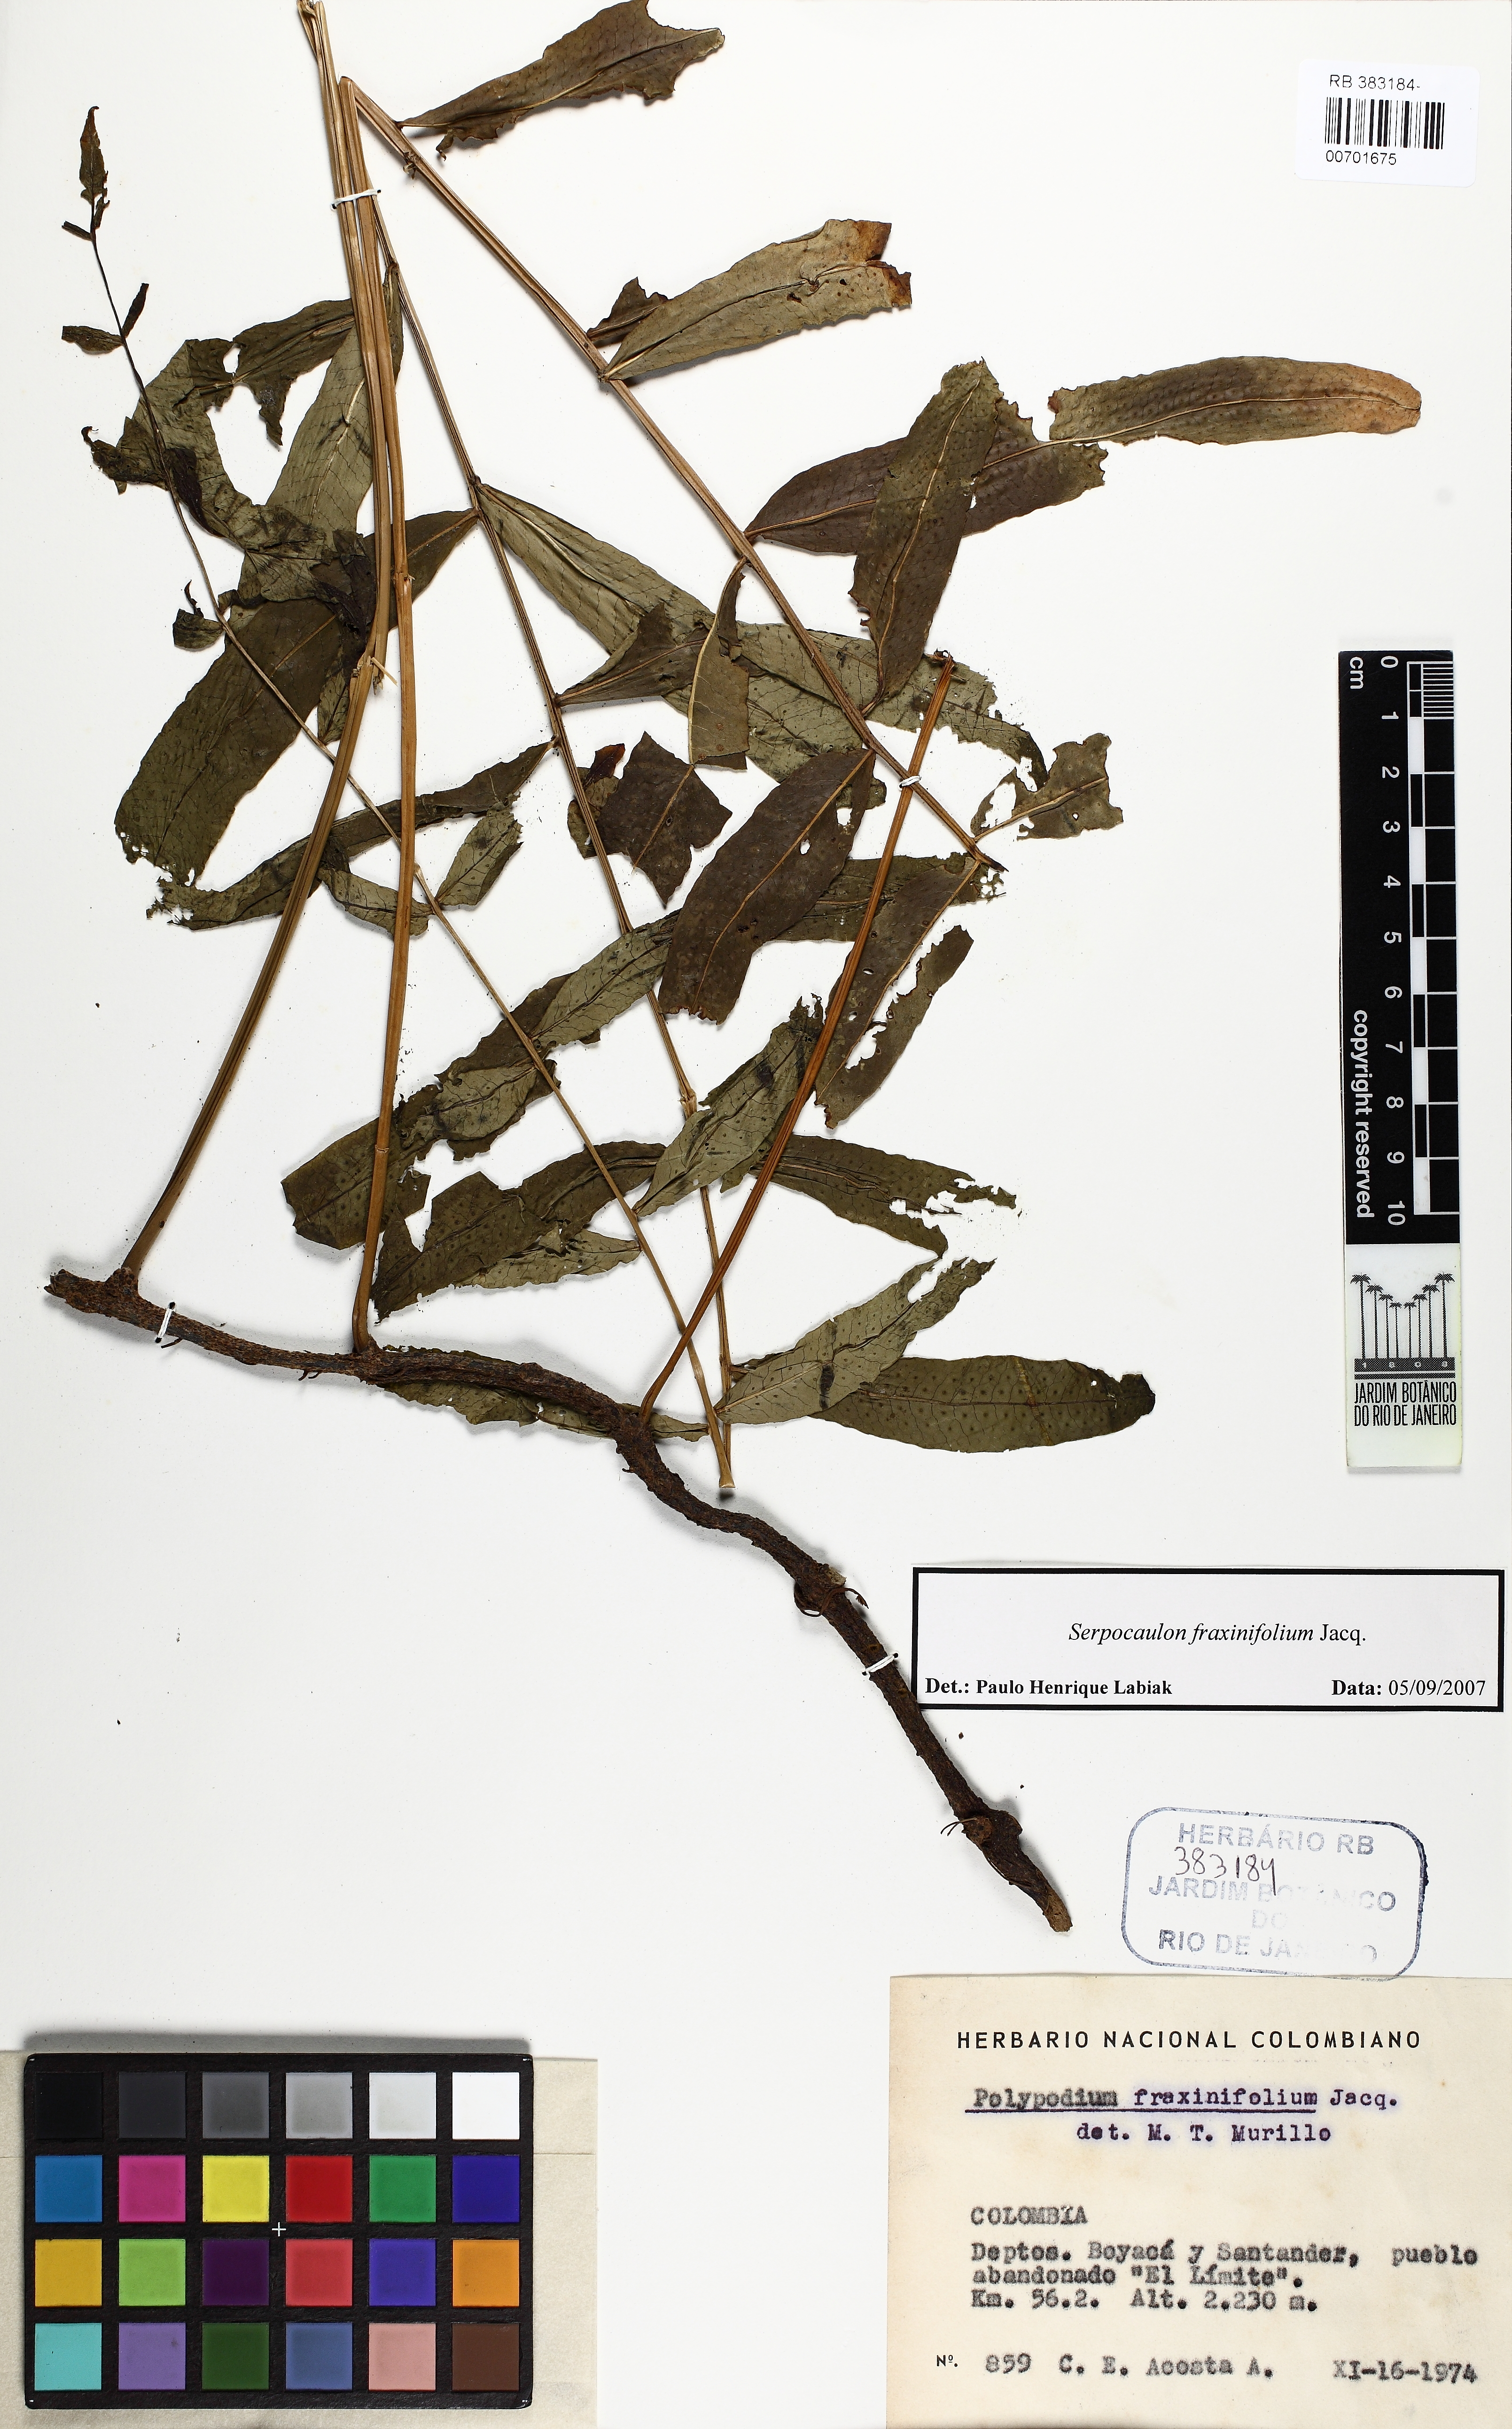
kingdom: Plantae
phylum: Tracheophyta
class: Polypodiopsida
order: Polypodiales
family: Polypodiaceae
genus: Serpocaulon
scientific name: Serpocaulon fraxinifolium
